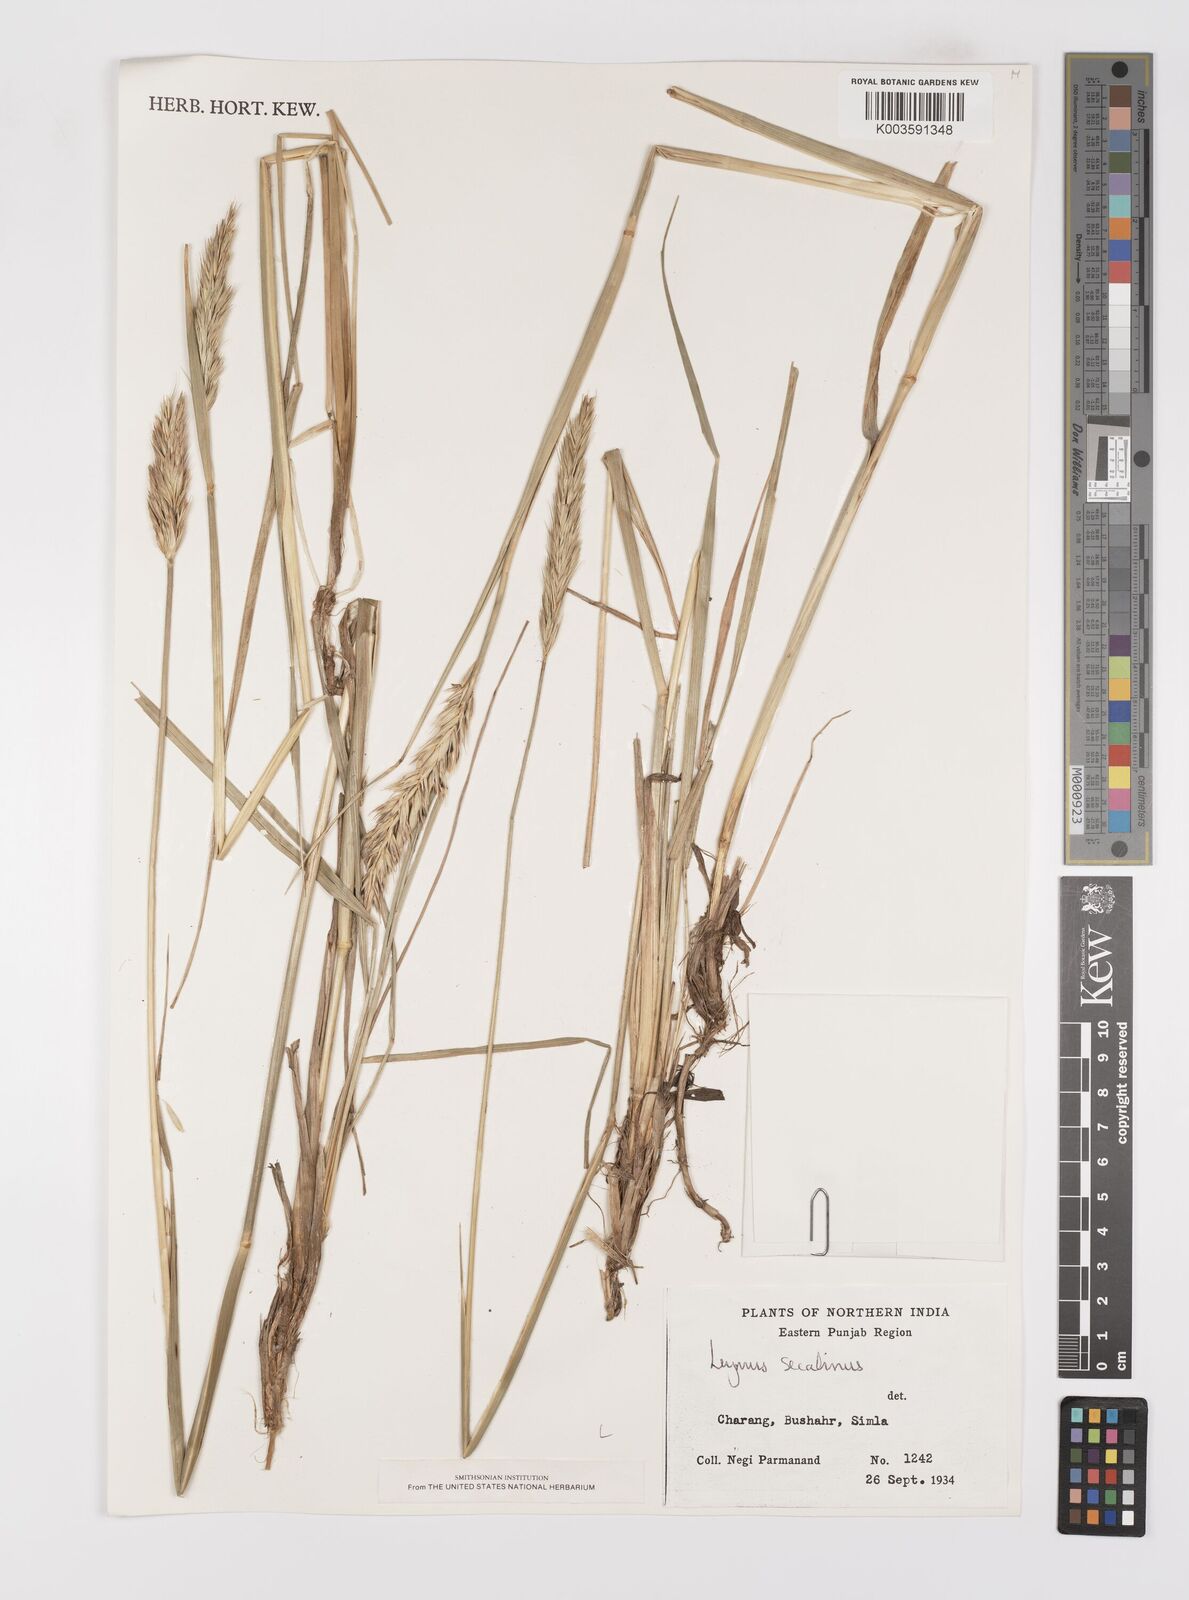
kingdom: Plantae
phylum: Tracheophyta
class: Liliopsida
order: Poales
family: Poaceae
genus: Leymus
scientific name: Leymus secalinus
